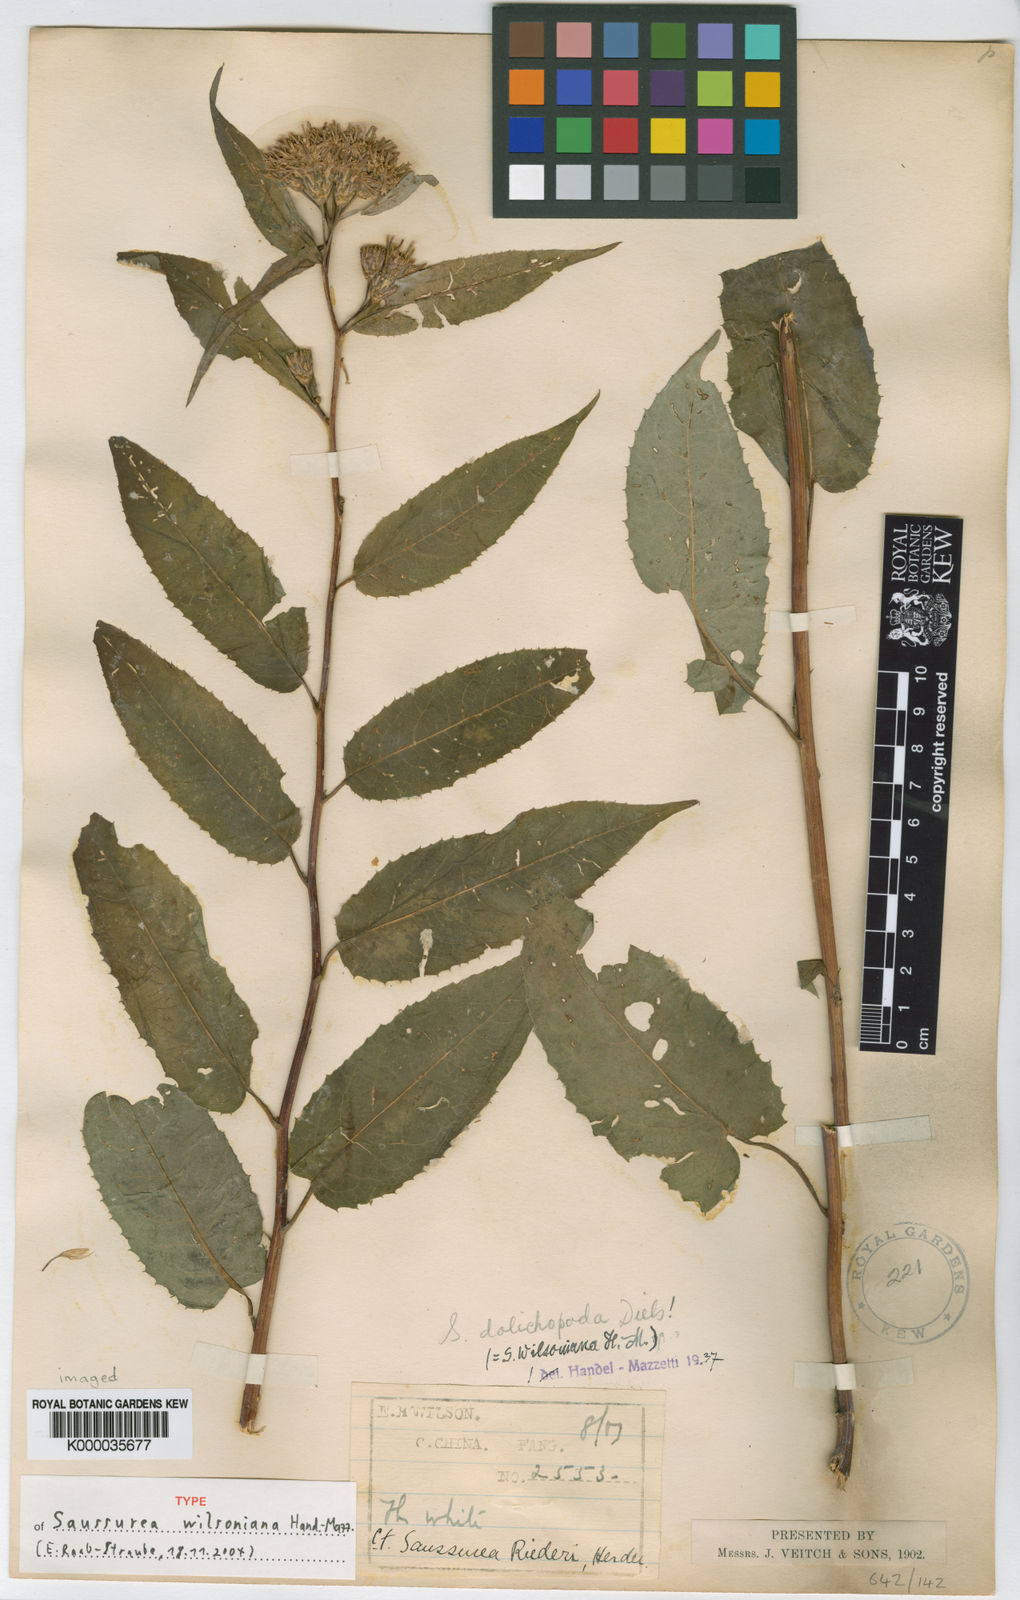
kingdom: Plantae
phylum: Tracheophyta
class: Magnoliopsida
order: Asterales
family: Asteraceae
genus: Saussurea
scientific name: Saussurea dolichopoda
